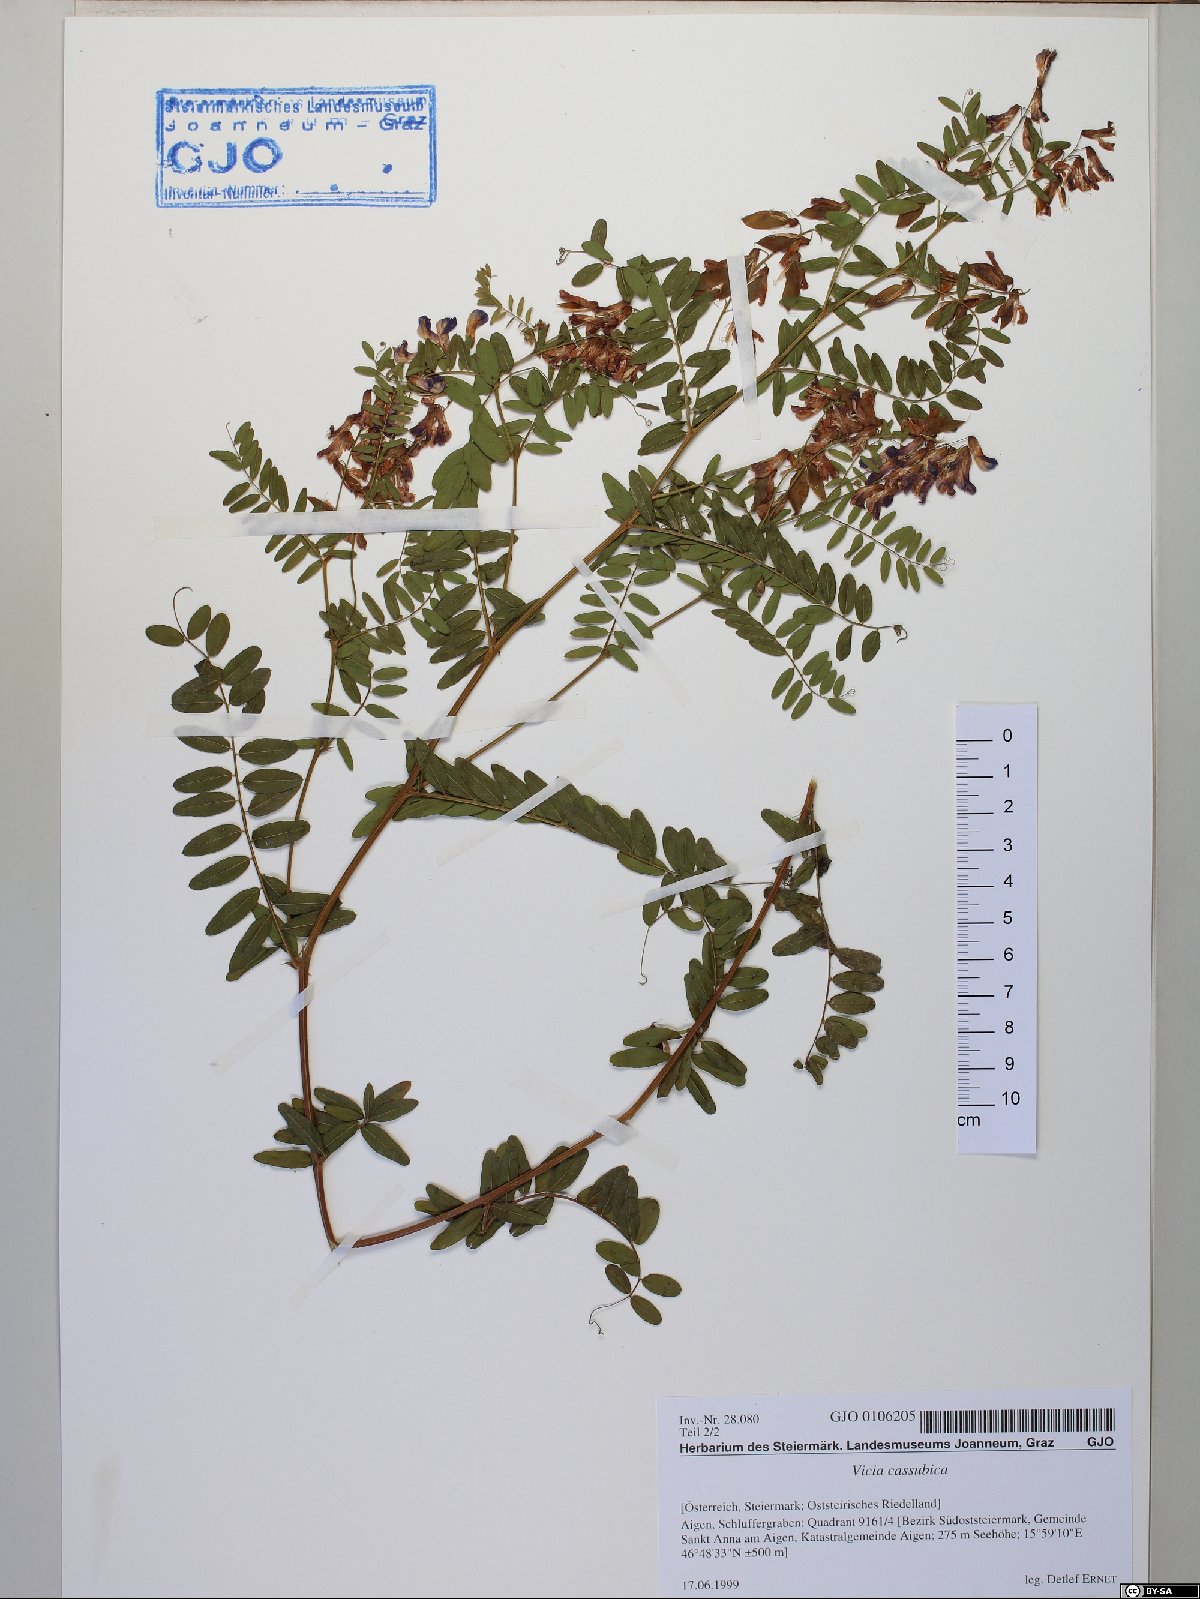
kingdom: Plantae
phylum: Tracheophyta
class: Magnoliopsida
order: Fabales
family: Fabaceae
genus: Vicia
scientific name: Vicia cassubica
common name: Danzig vetch
